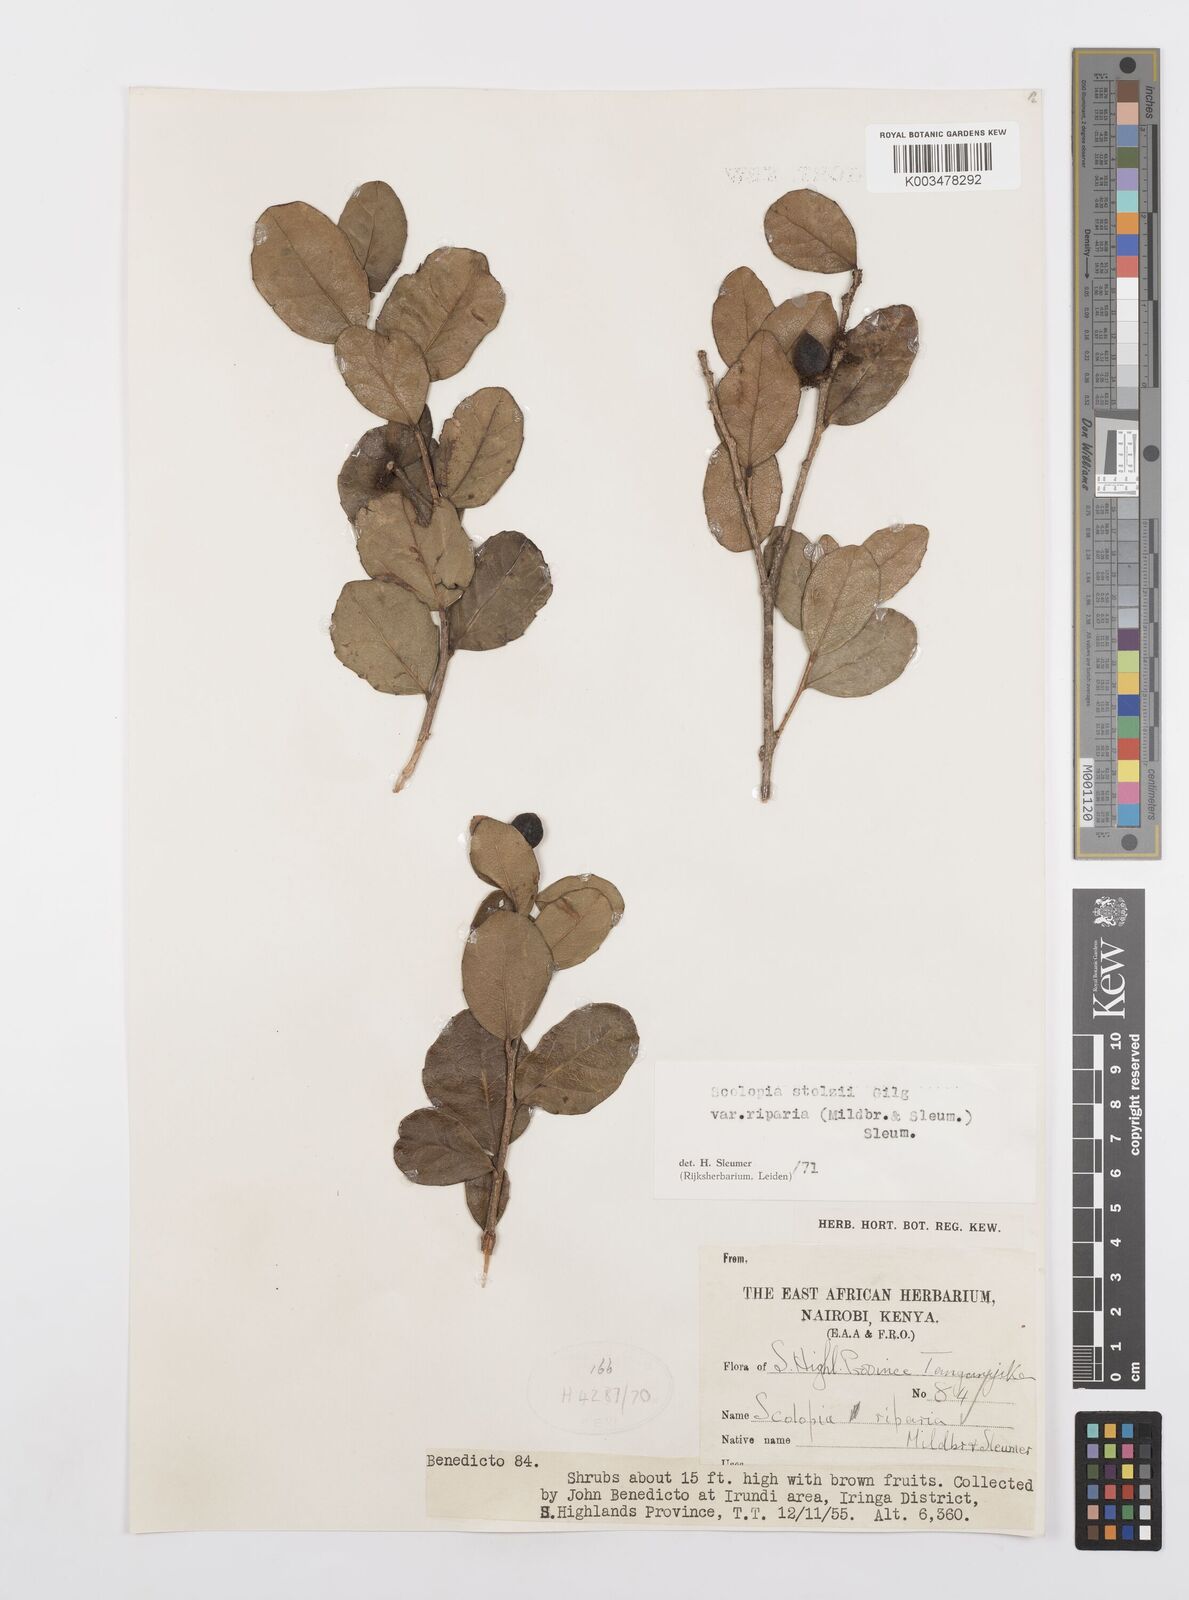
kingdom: Plantae
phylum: Tracheophyta
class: Magnoliopsida
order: Malpighiales
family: Salicaceae
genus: Scolopia
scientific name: Scolopia stolzii
